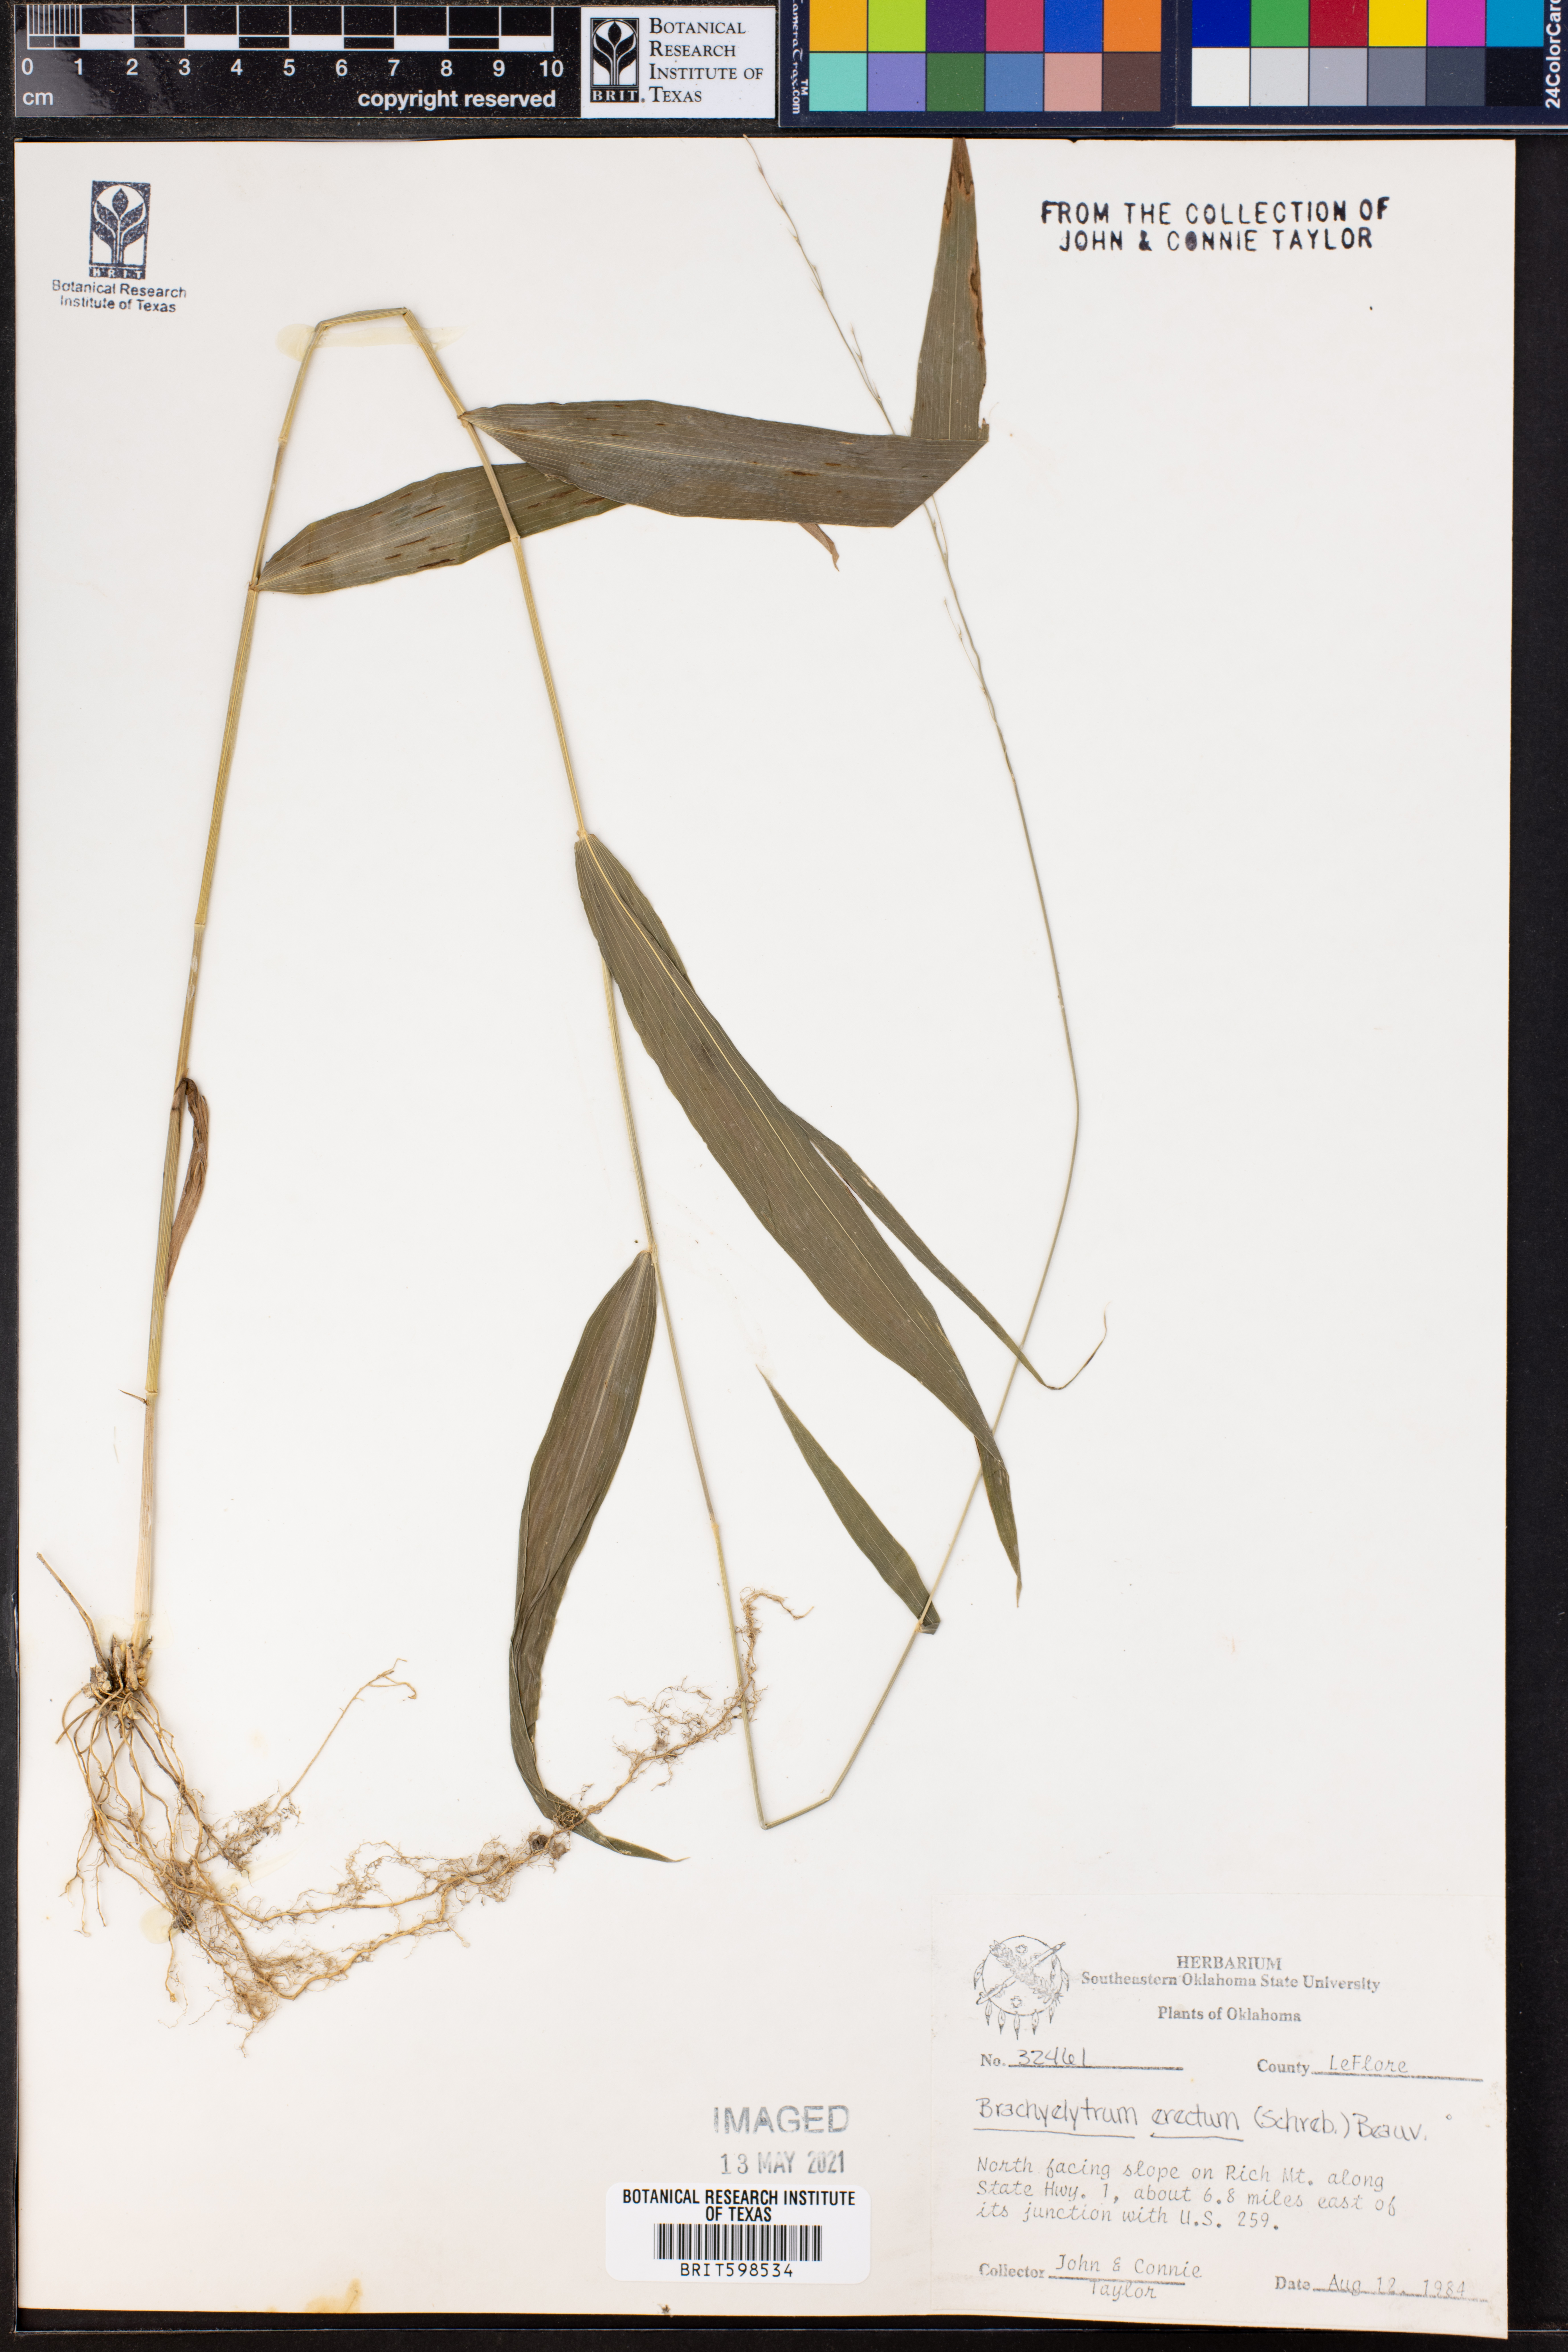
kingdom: Plantae
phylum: Tracheophyta
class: Liliopsida
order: Poales
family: Poaceae
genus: Brachyelytrum
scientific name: Brachyelytrum erectum
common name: Bearded shorthusk
